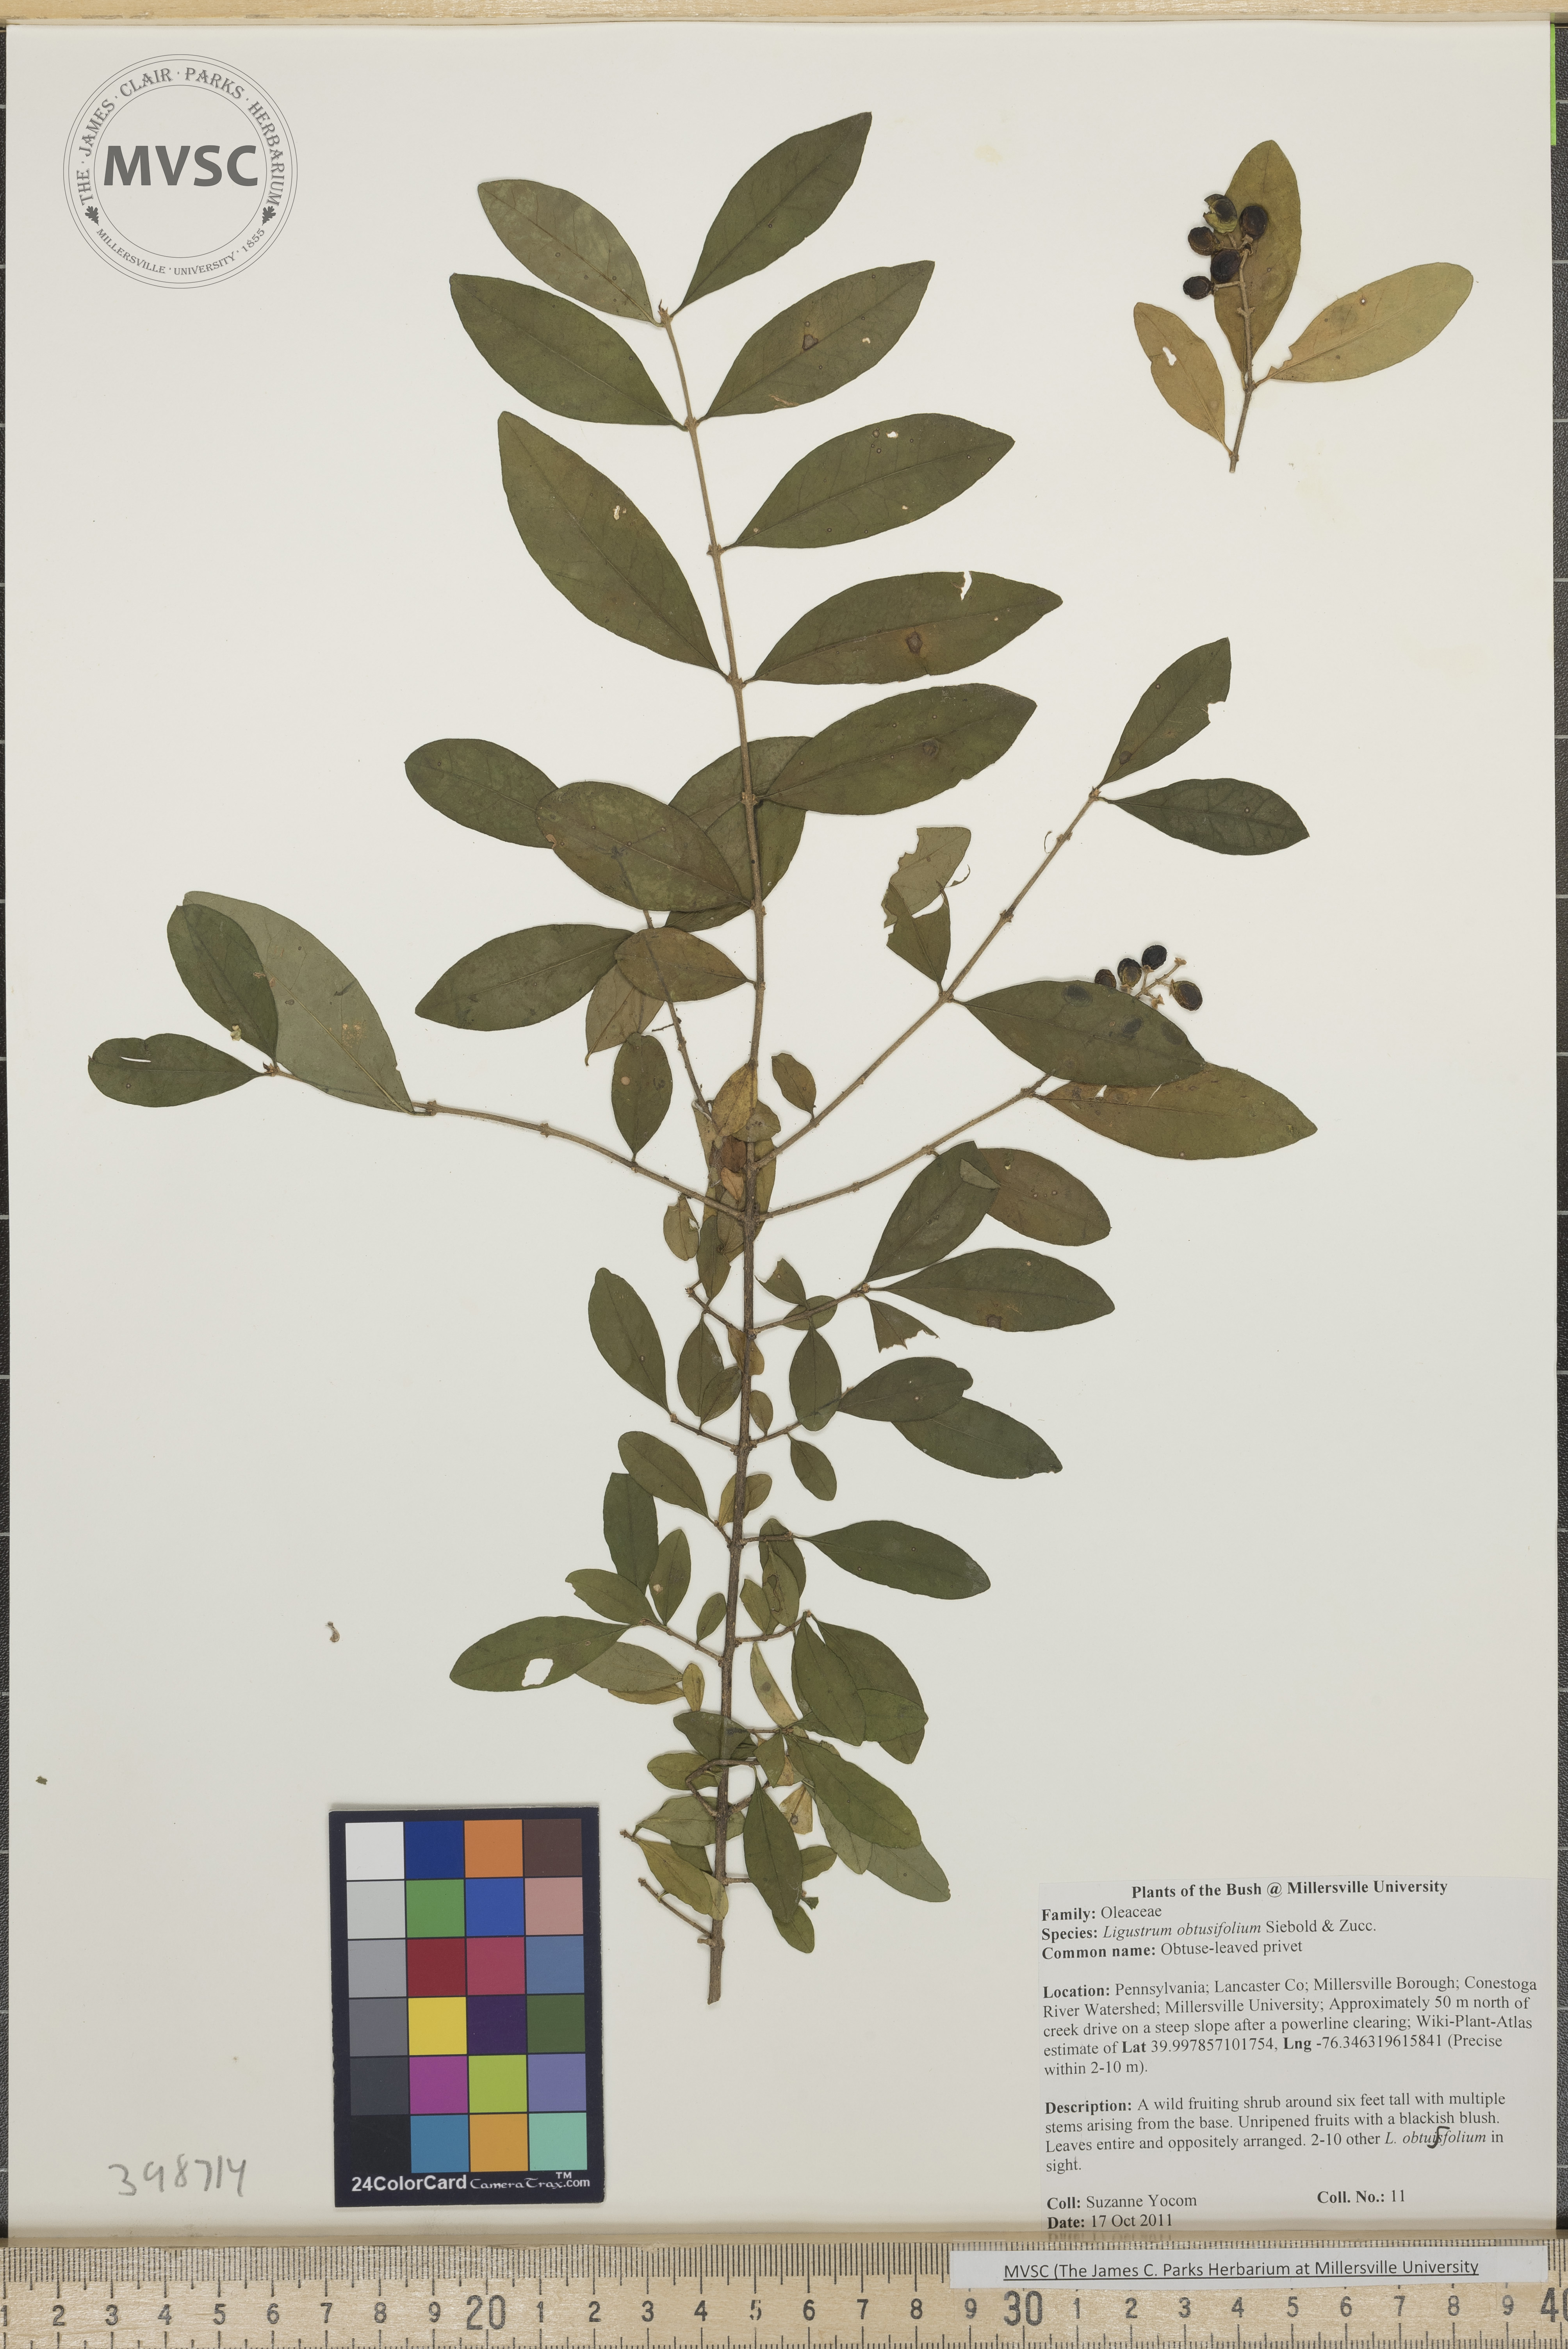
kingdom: Plantae
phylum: Tracheophyta
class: Magnoliopsida
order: Lamiales
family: Oleaceae
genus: Ligustrum
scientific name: Ligustrum obtusifolium
